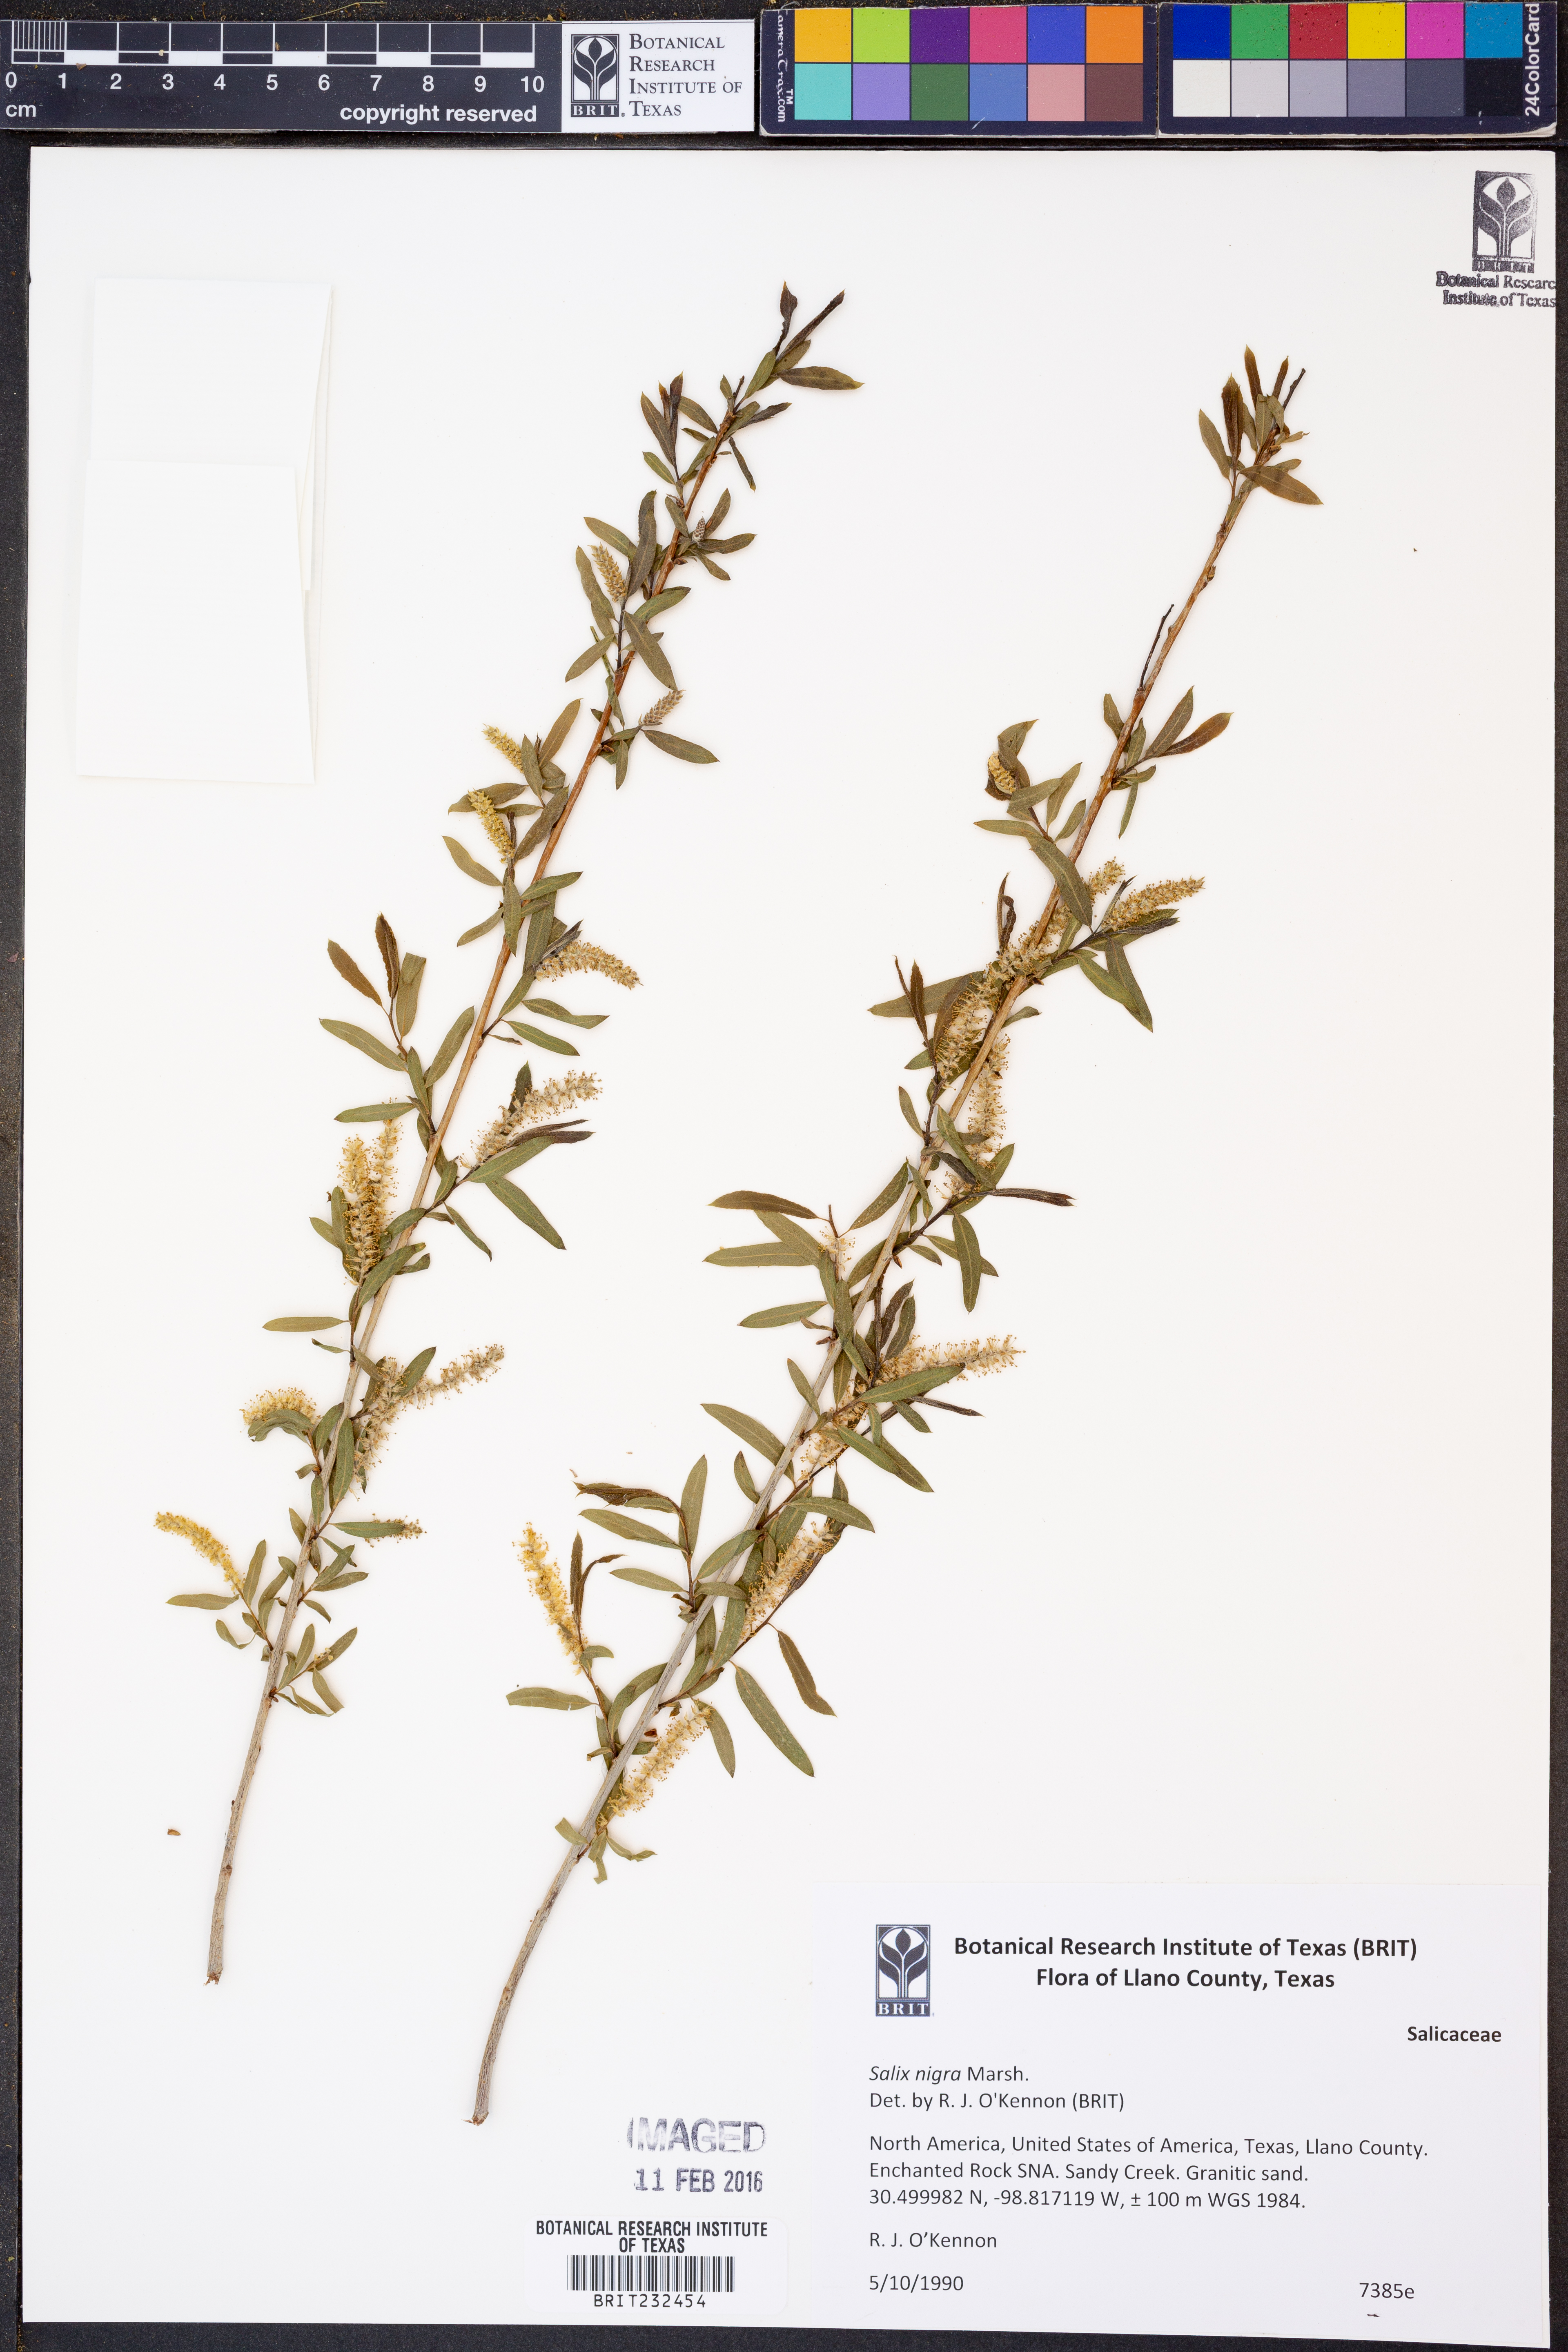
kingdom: Plantae
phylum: Tracheophyta
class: Magnoliopsida
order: Malpighiales
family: Salicaceae
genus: Salix
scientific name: Salix nigra
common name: Black willow
